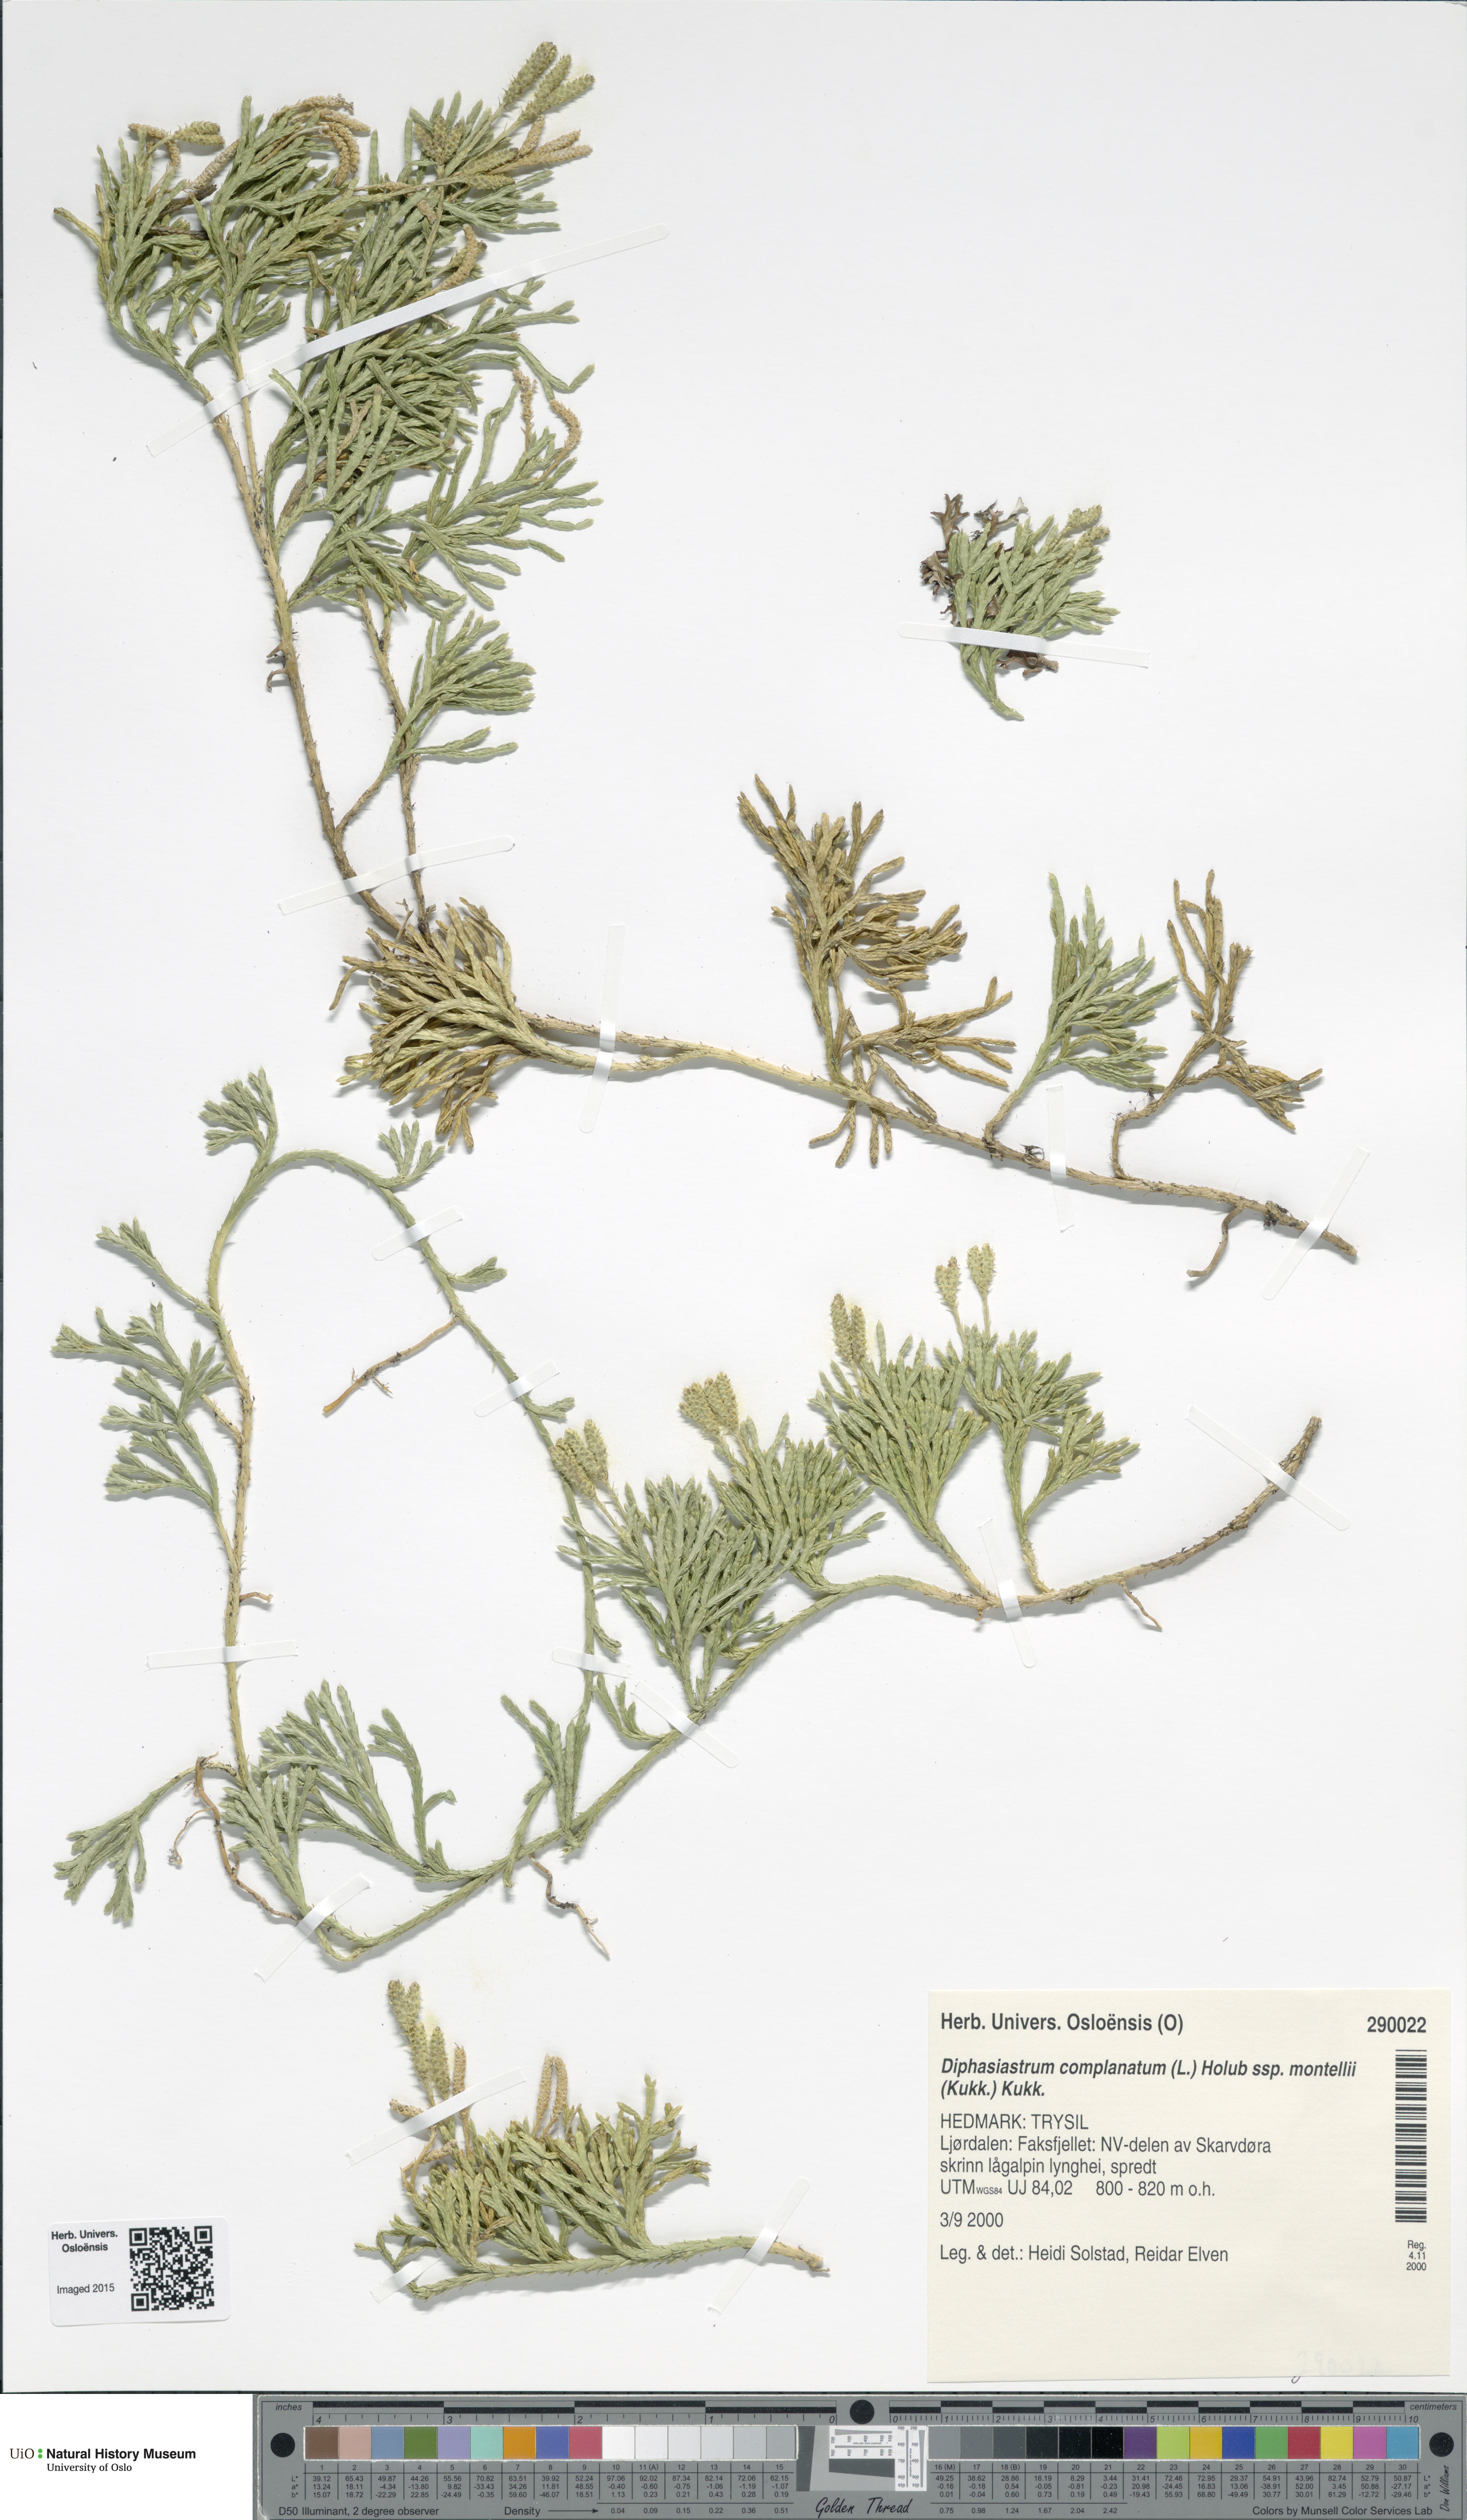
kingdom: Plantae
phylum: Tracheophyta
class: Lycopodiopsida
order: Lycopodiales
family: Lycopodiaceae
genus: Diphasiastrum
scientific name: Diphasiastrum complanatum
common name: Northern running-pine
